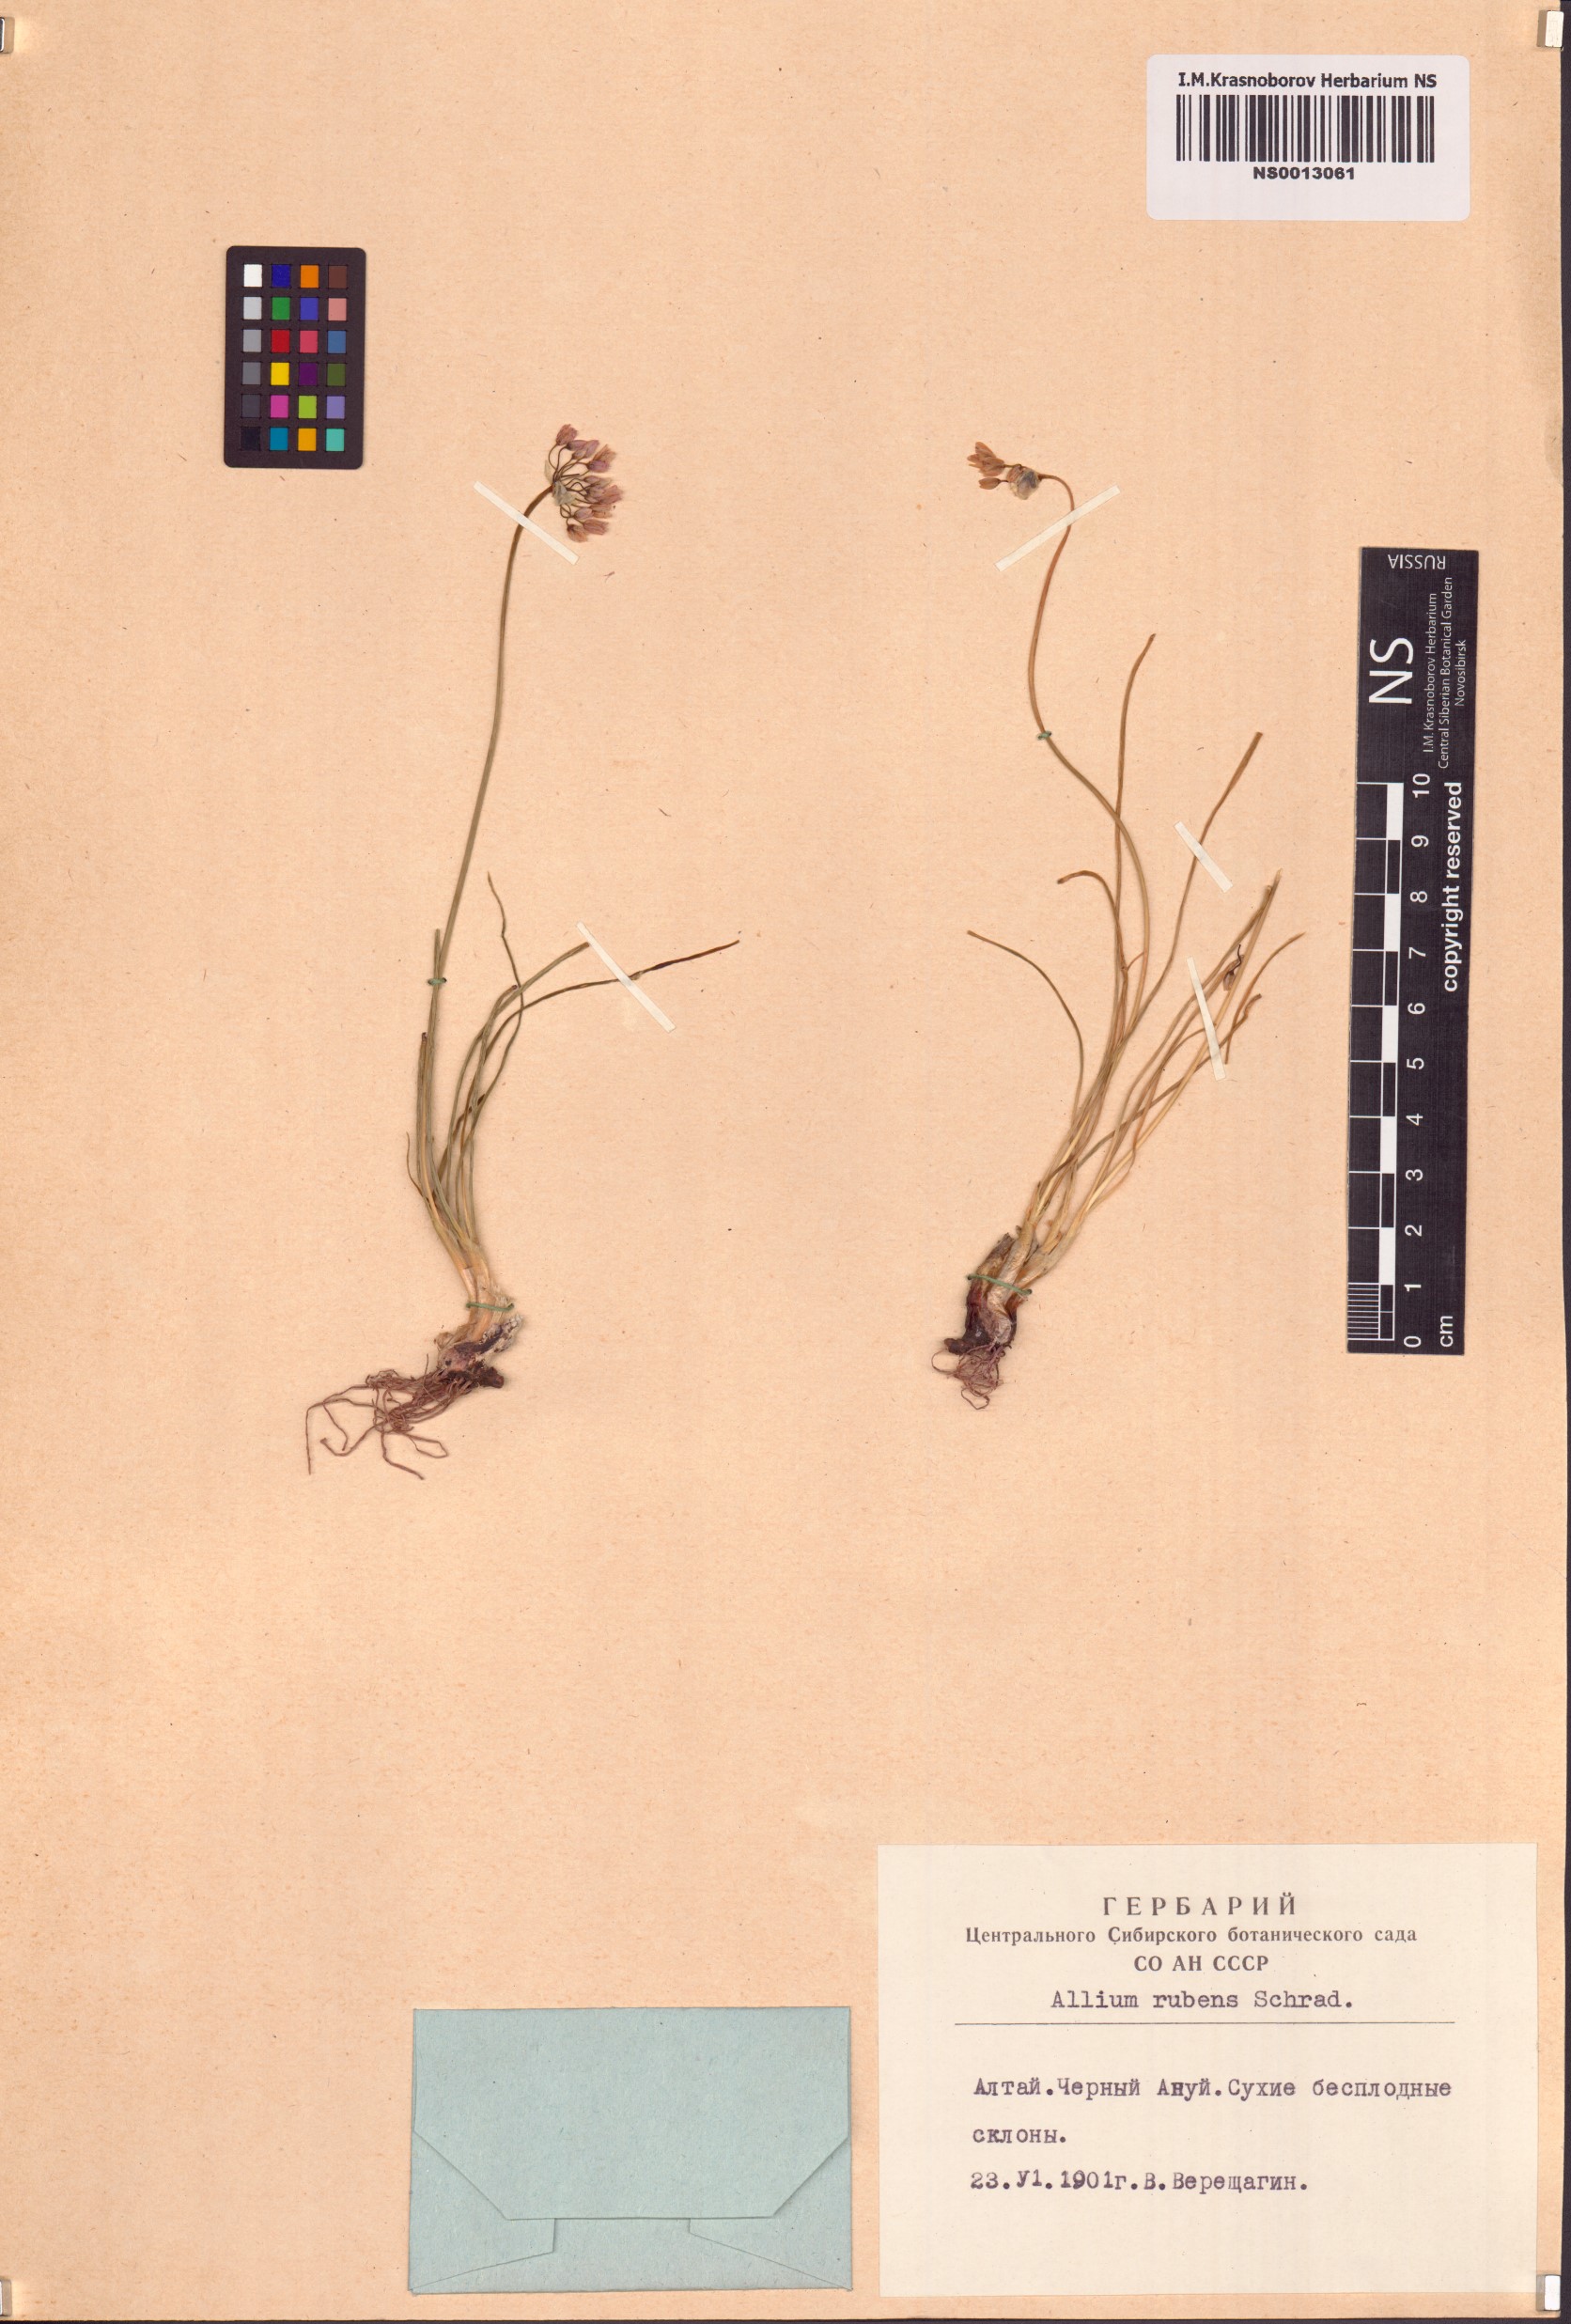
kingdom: Plantae
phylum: Tracheophyta
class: Liliopsida
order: Asparagales
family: Amaryllidaceae
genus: Allium
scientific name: Allium rubens
